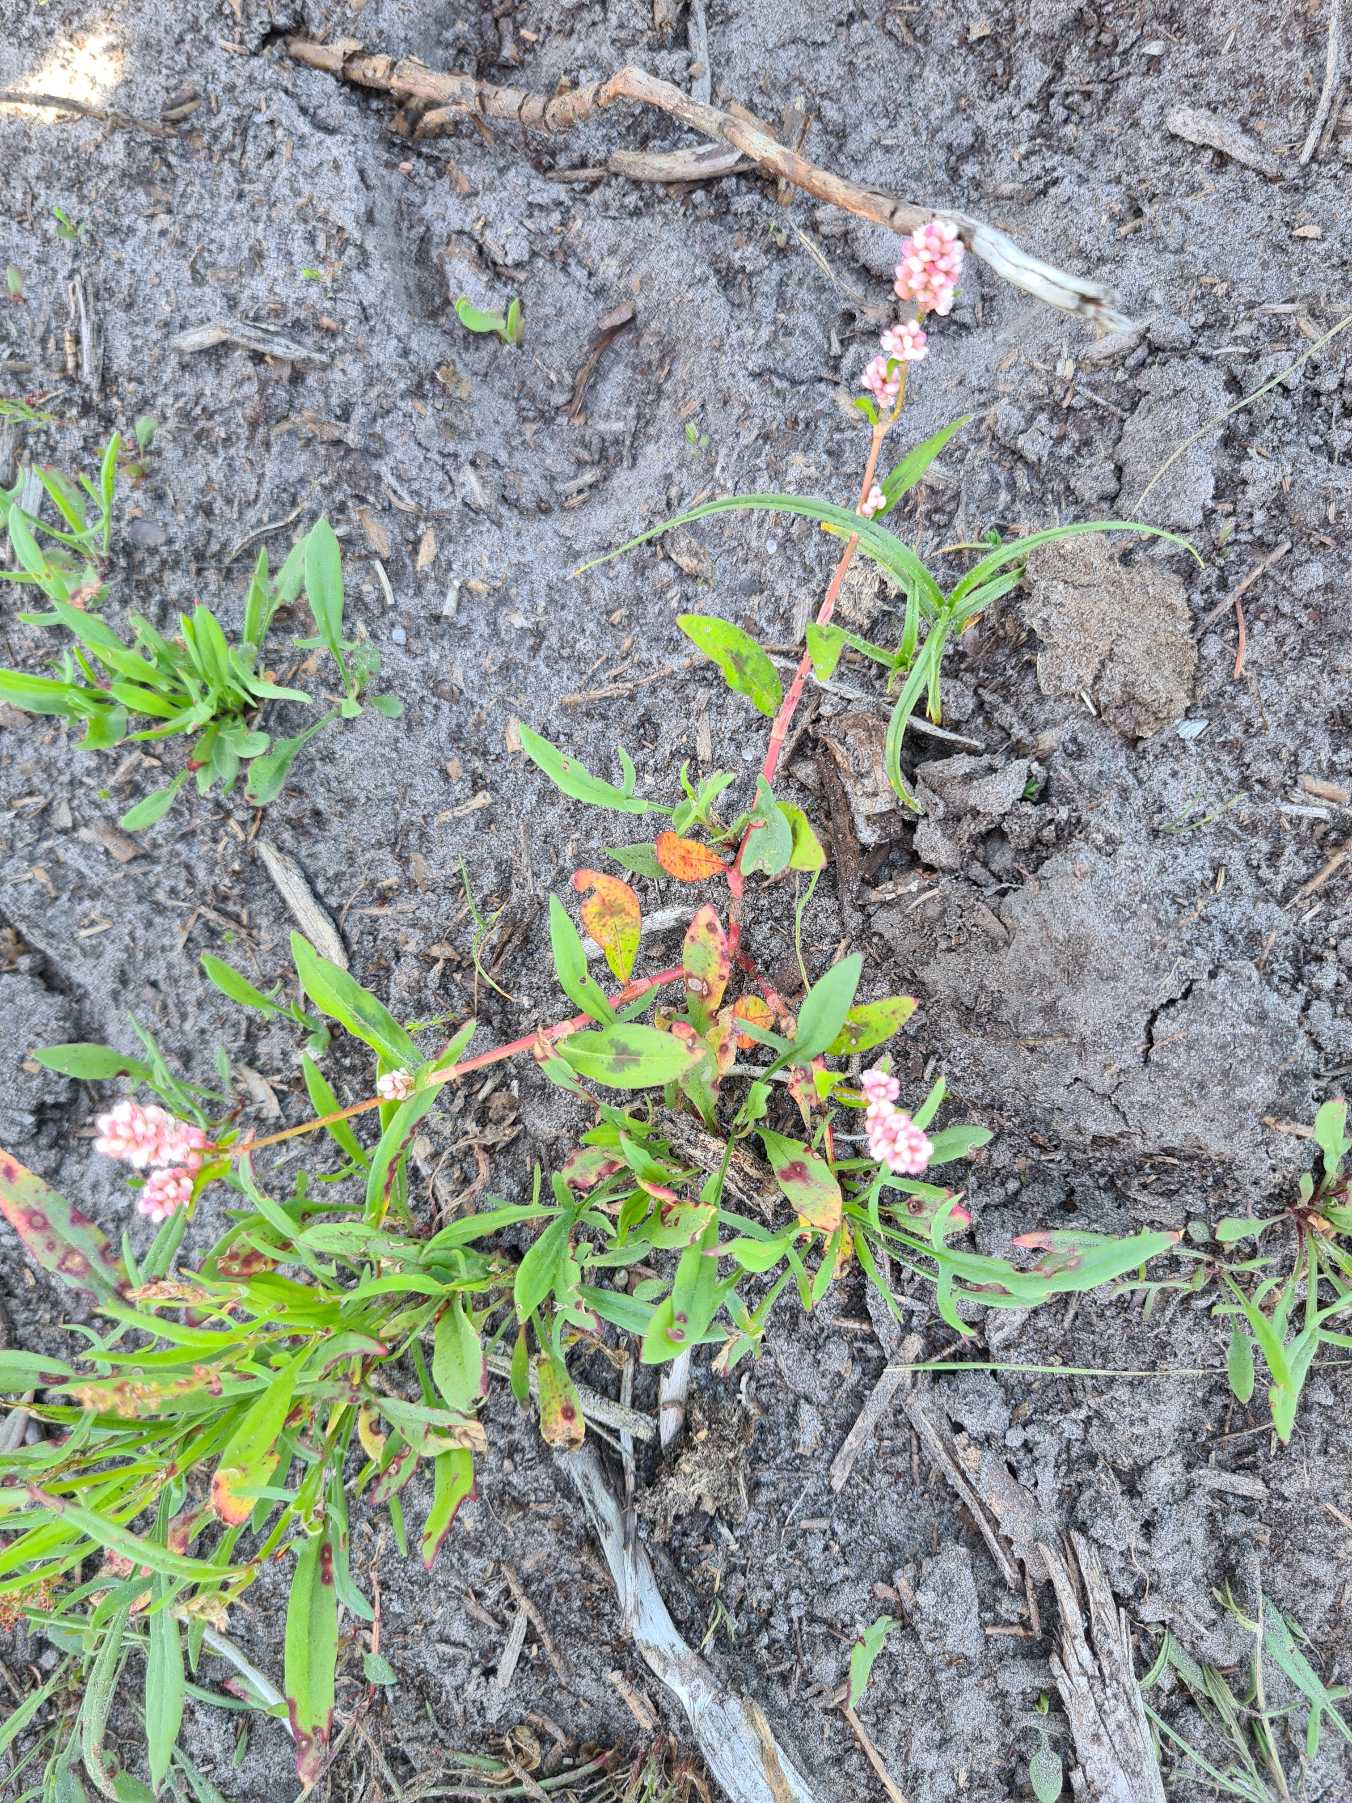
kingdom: Plantae
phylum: Tracheophyta
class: Magnoliopsida
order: Caryophyllales
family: Polygonaceae
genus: Persicaria
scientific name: Persicaria maculosa
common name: Fersken-pileurt
